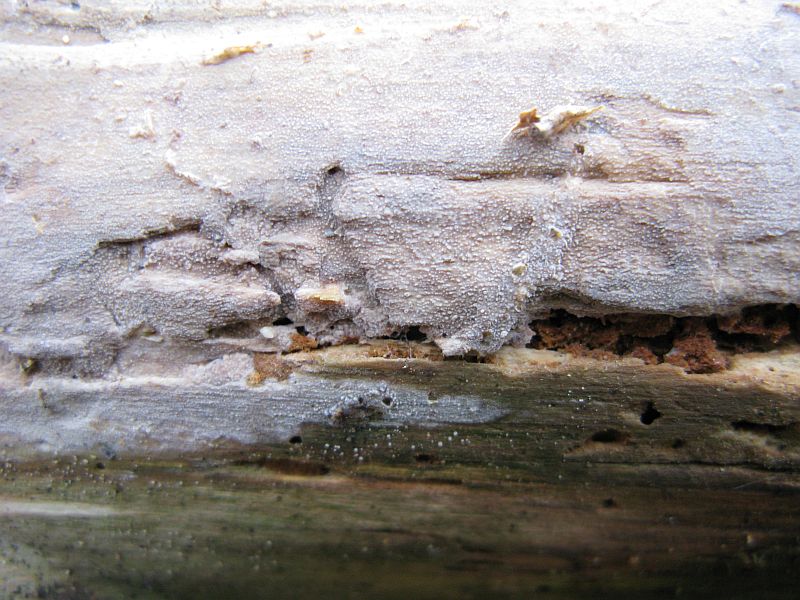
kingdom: Fungi
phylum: Basidiomycota
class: Agaricomycetes
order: Hymenochaetales
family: Rickenellaceae
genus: Resinicium
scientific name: Resinicium bicolor
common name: almindelig vokstand
